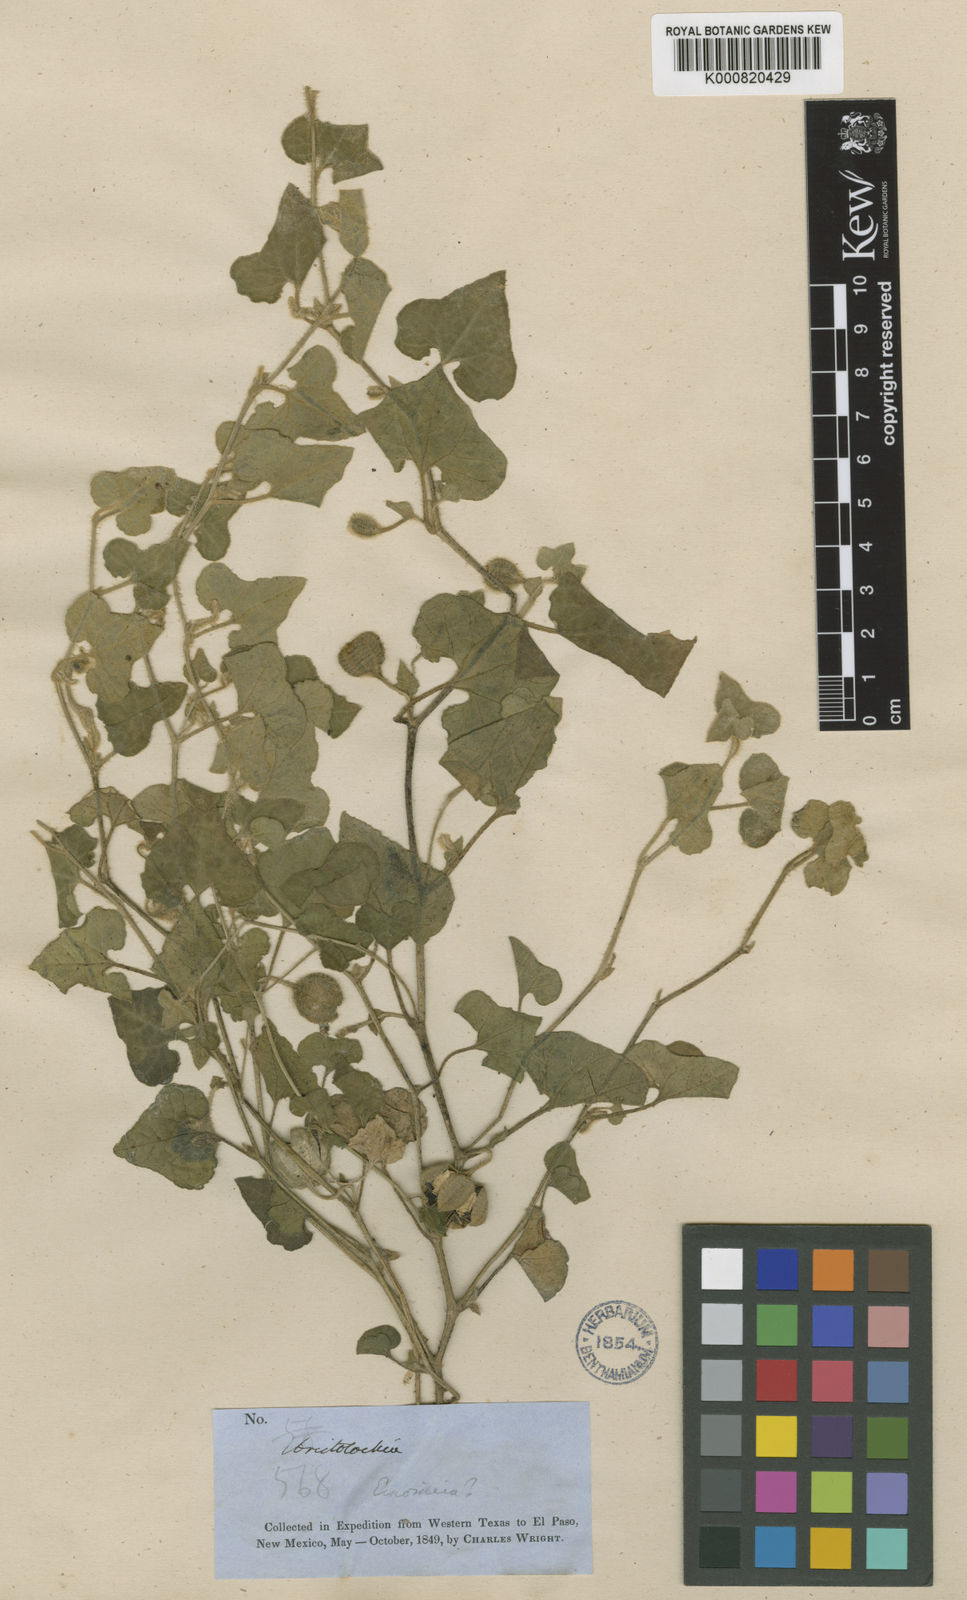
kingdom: Plantae
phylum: Tracheophyta
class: Magnoliopsida
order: Piperales
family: Aristolochiaceae
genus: Aristolochia
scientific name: Aristolochia wrightii
